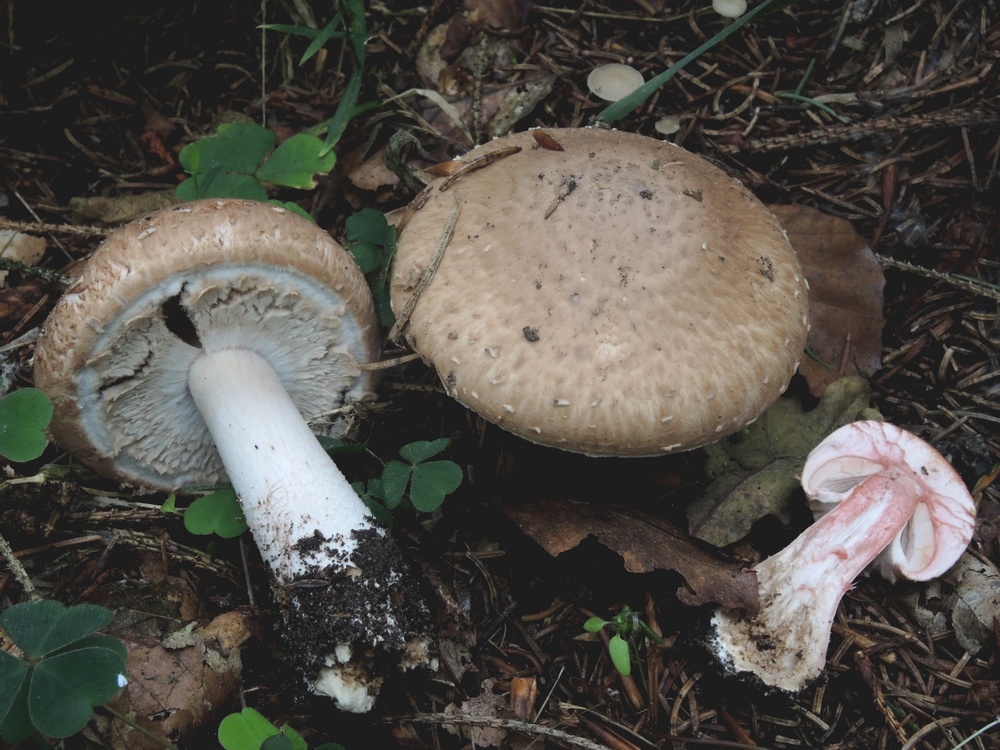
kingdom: Fungi
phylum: Basidiomycota
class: Agaricomycetes
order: Agaricales
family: Agaricaceae
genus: Agaricus
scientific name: Agaricus sylvaticus
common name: lille blod-champignon
